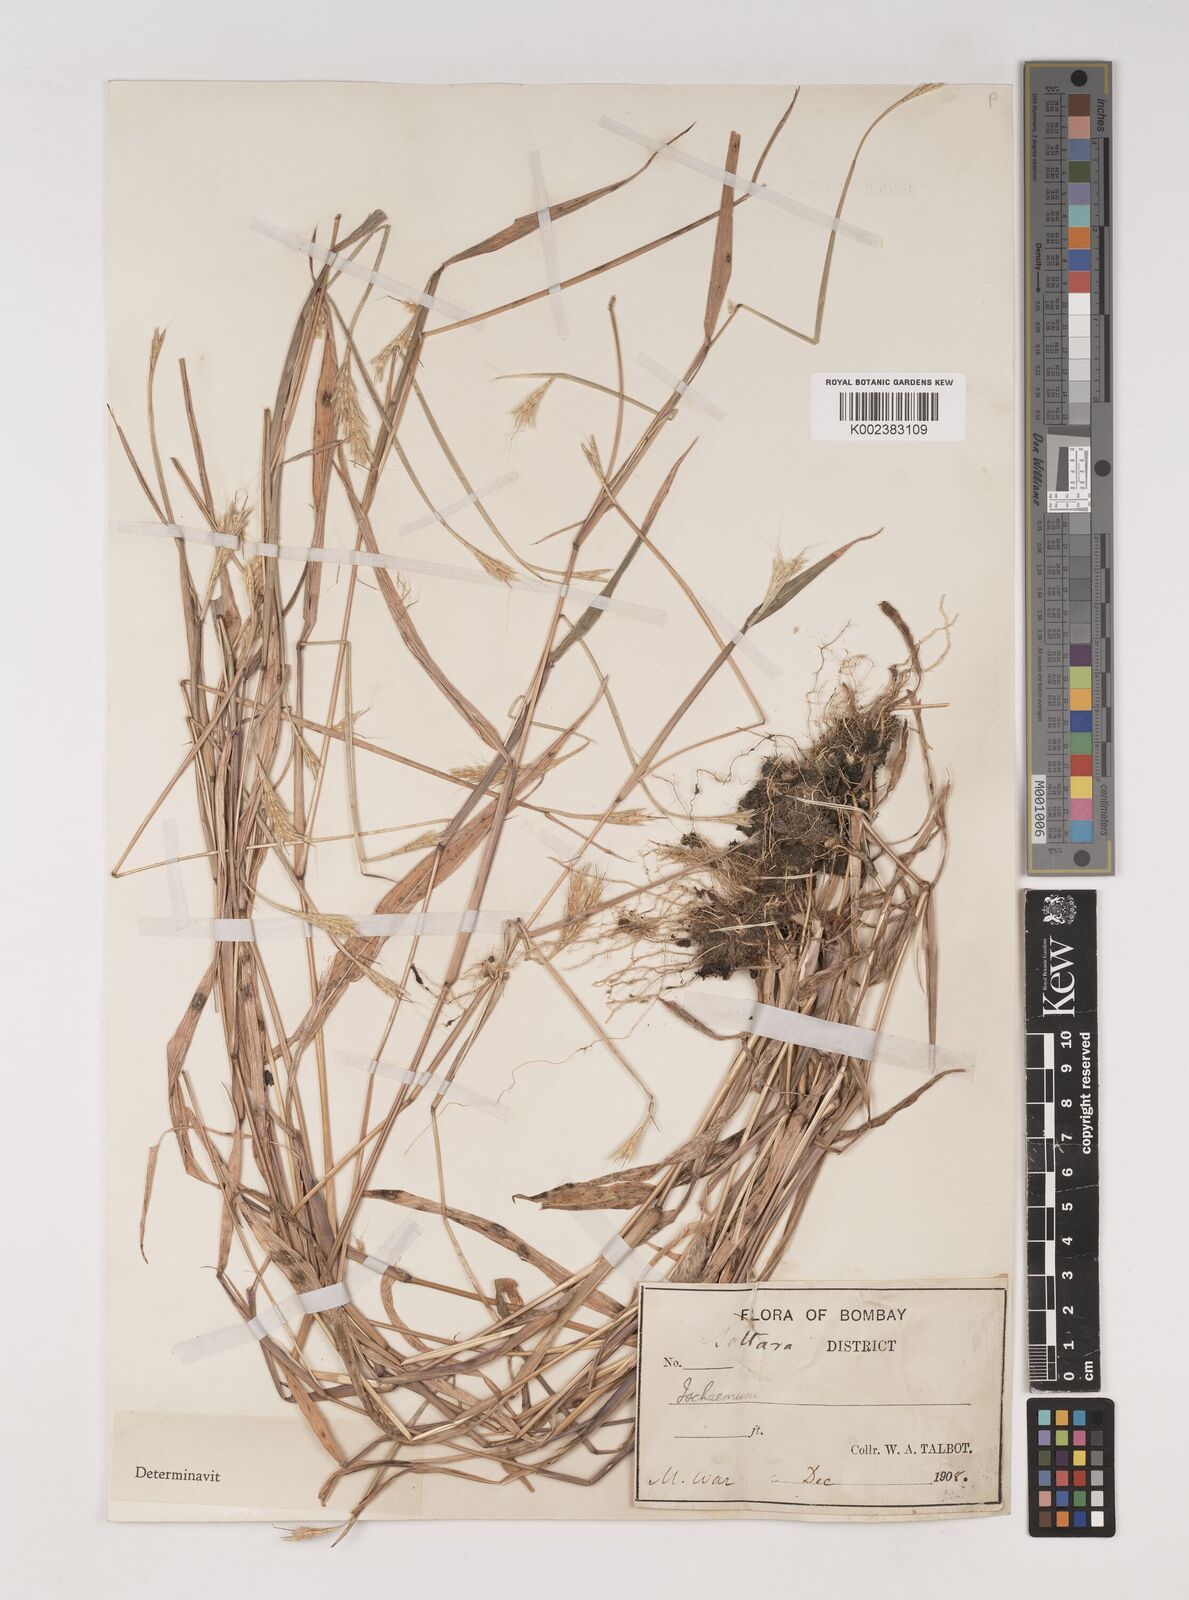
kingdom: Plantae
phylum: Tracheophyta
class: Liliopsida
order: Poales
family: Poaceae
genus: Ischaemum
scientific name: Ischaemum diplopogon
